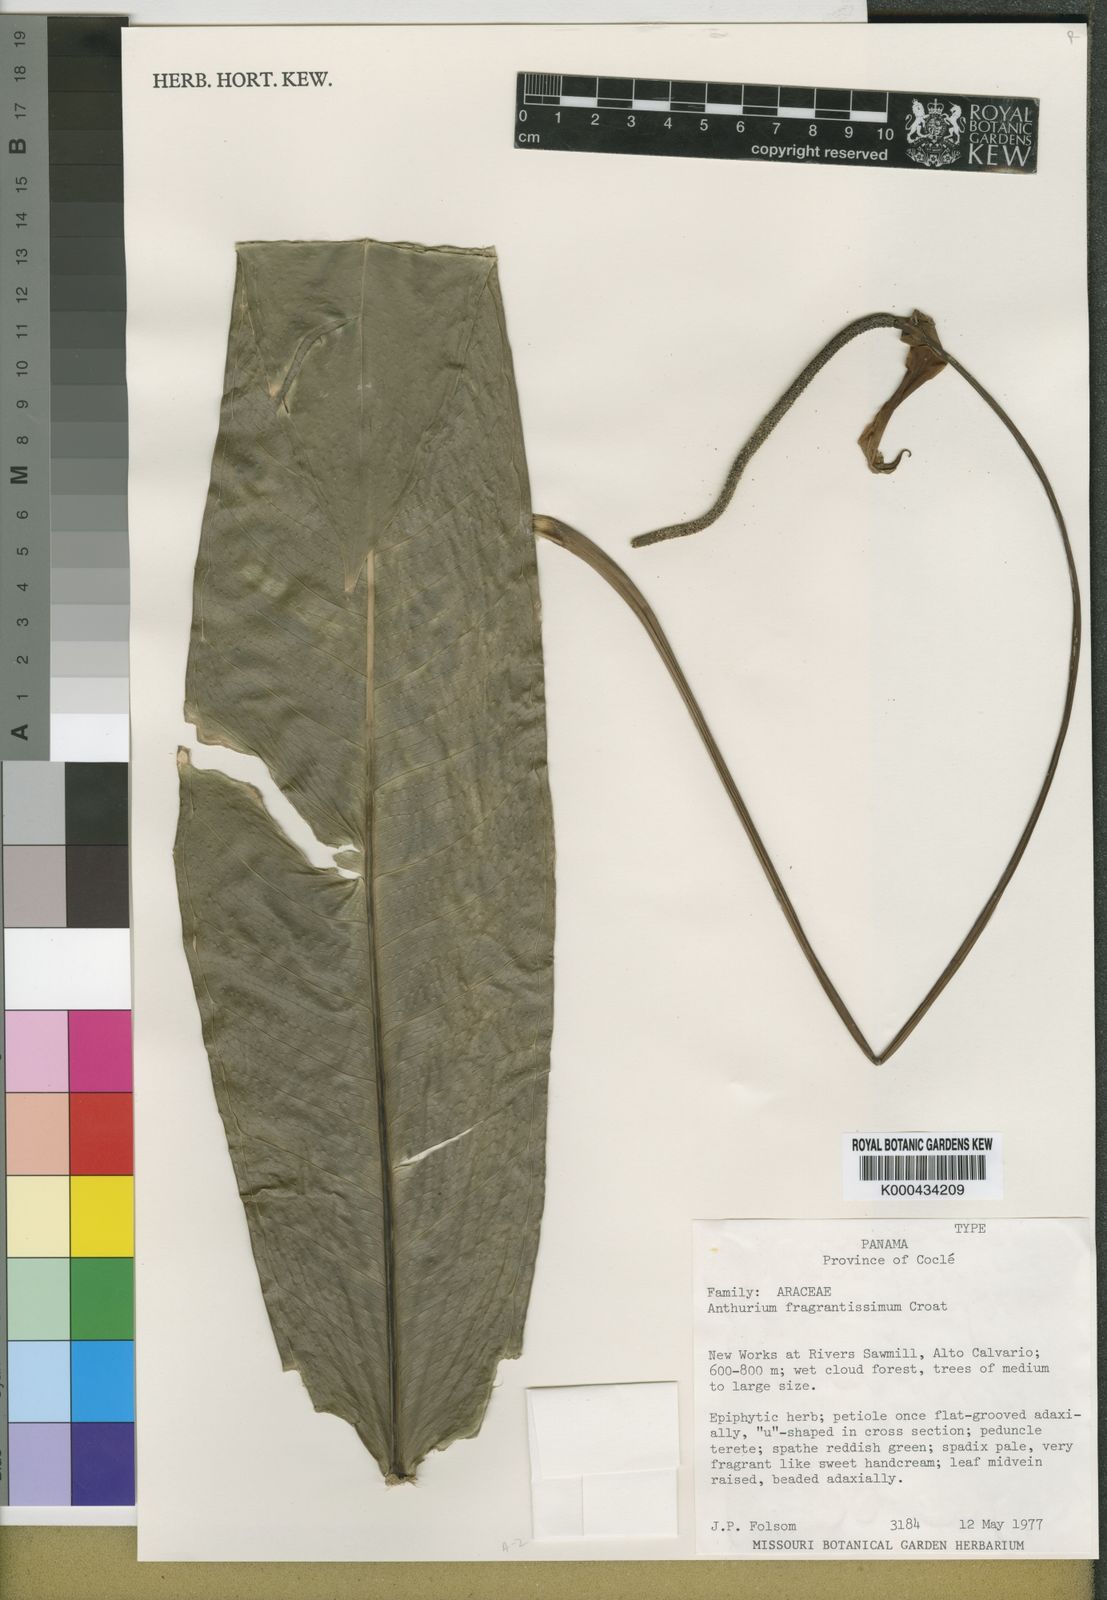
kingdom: Plantae
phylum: Tracheophyta
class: Liliopsida
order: Alismatales
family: Araceae
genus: Anthurium
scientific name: Anthurium fragrantissimum
